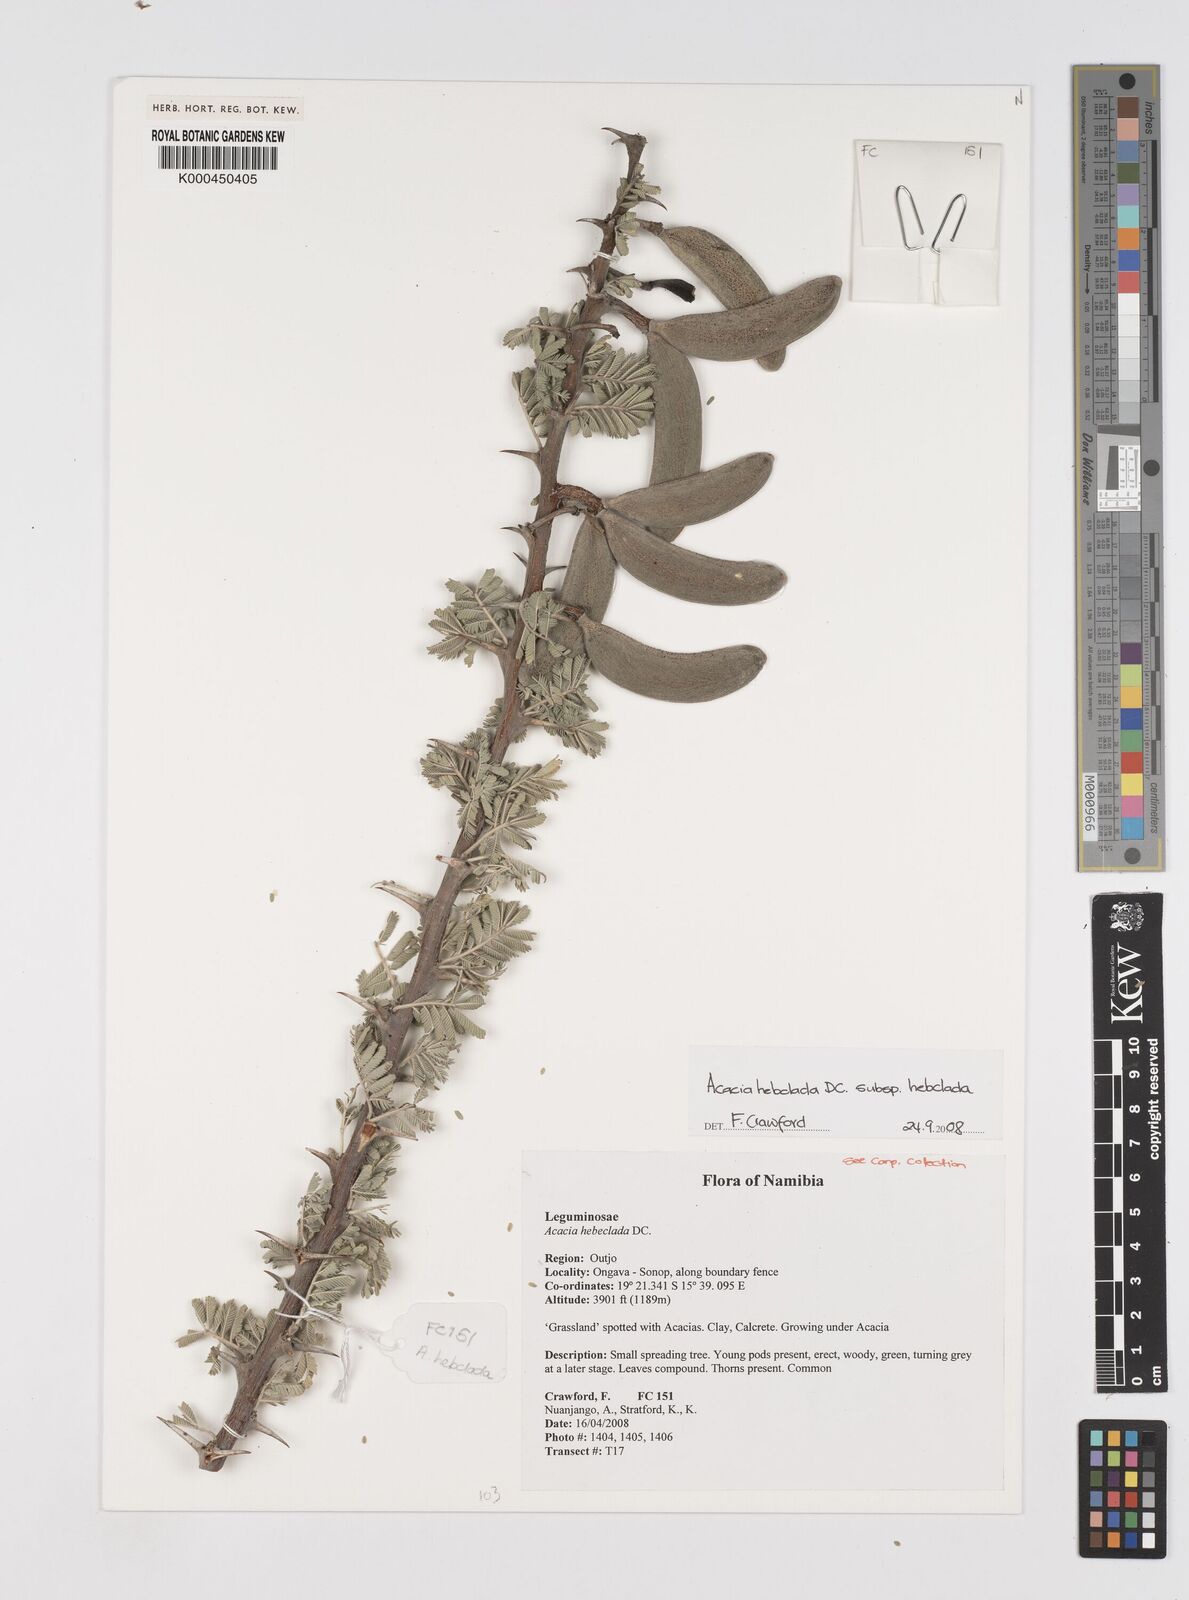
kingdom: Plantae
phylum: Tracheophyta
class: Magnoliopsida
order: Fabales
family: Fabaceae
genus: Vachellia
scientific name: Vachellia hebeclada
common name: Candle thorn
